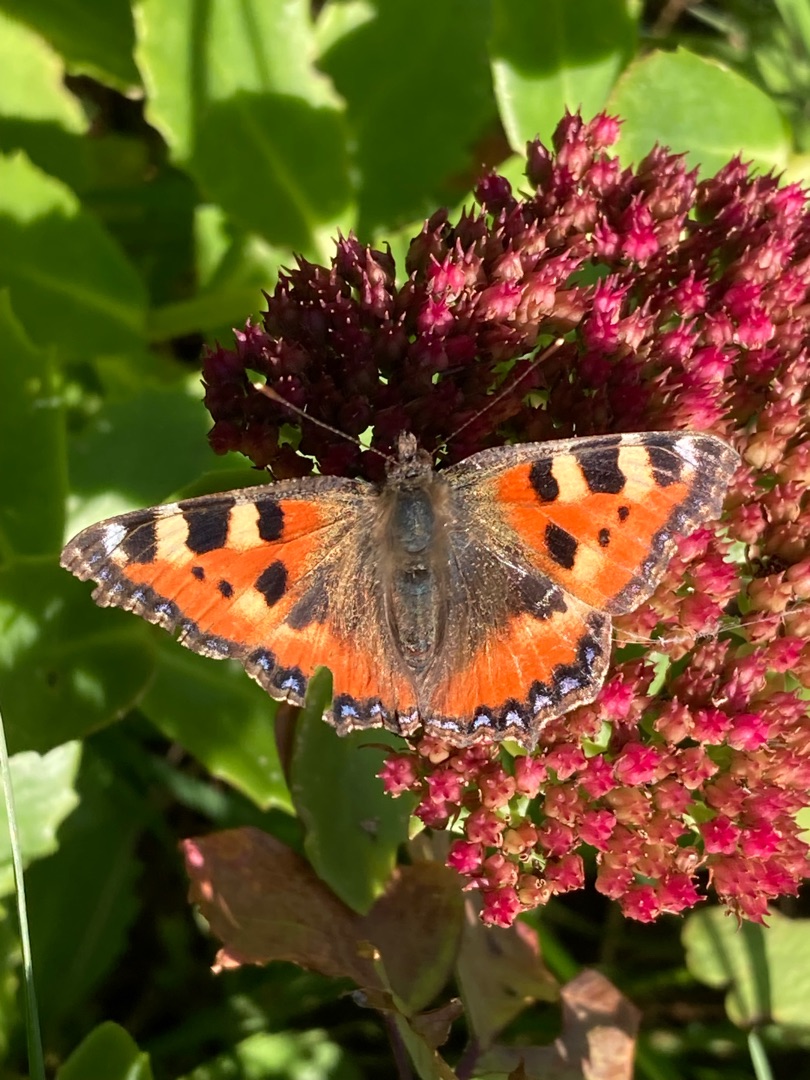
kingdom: Animalia
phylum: Arthropoda
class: Insecta
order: Lepidoptera
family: Nymphalidae
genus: Aglais
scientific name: Aglais urticae
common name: Nældens takvinge
